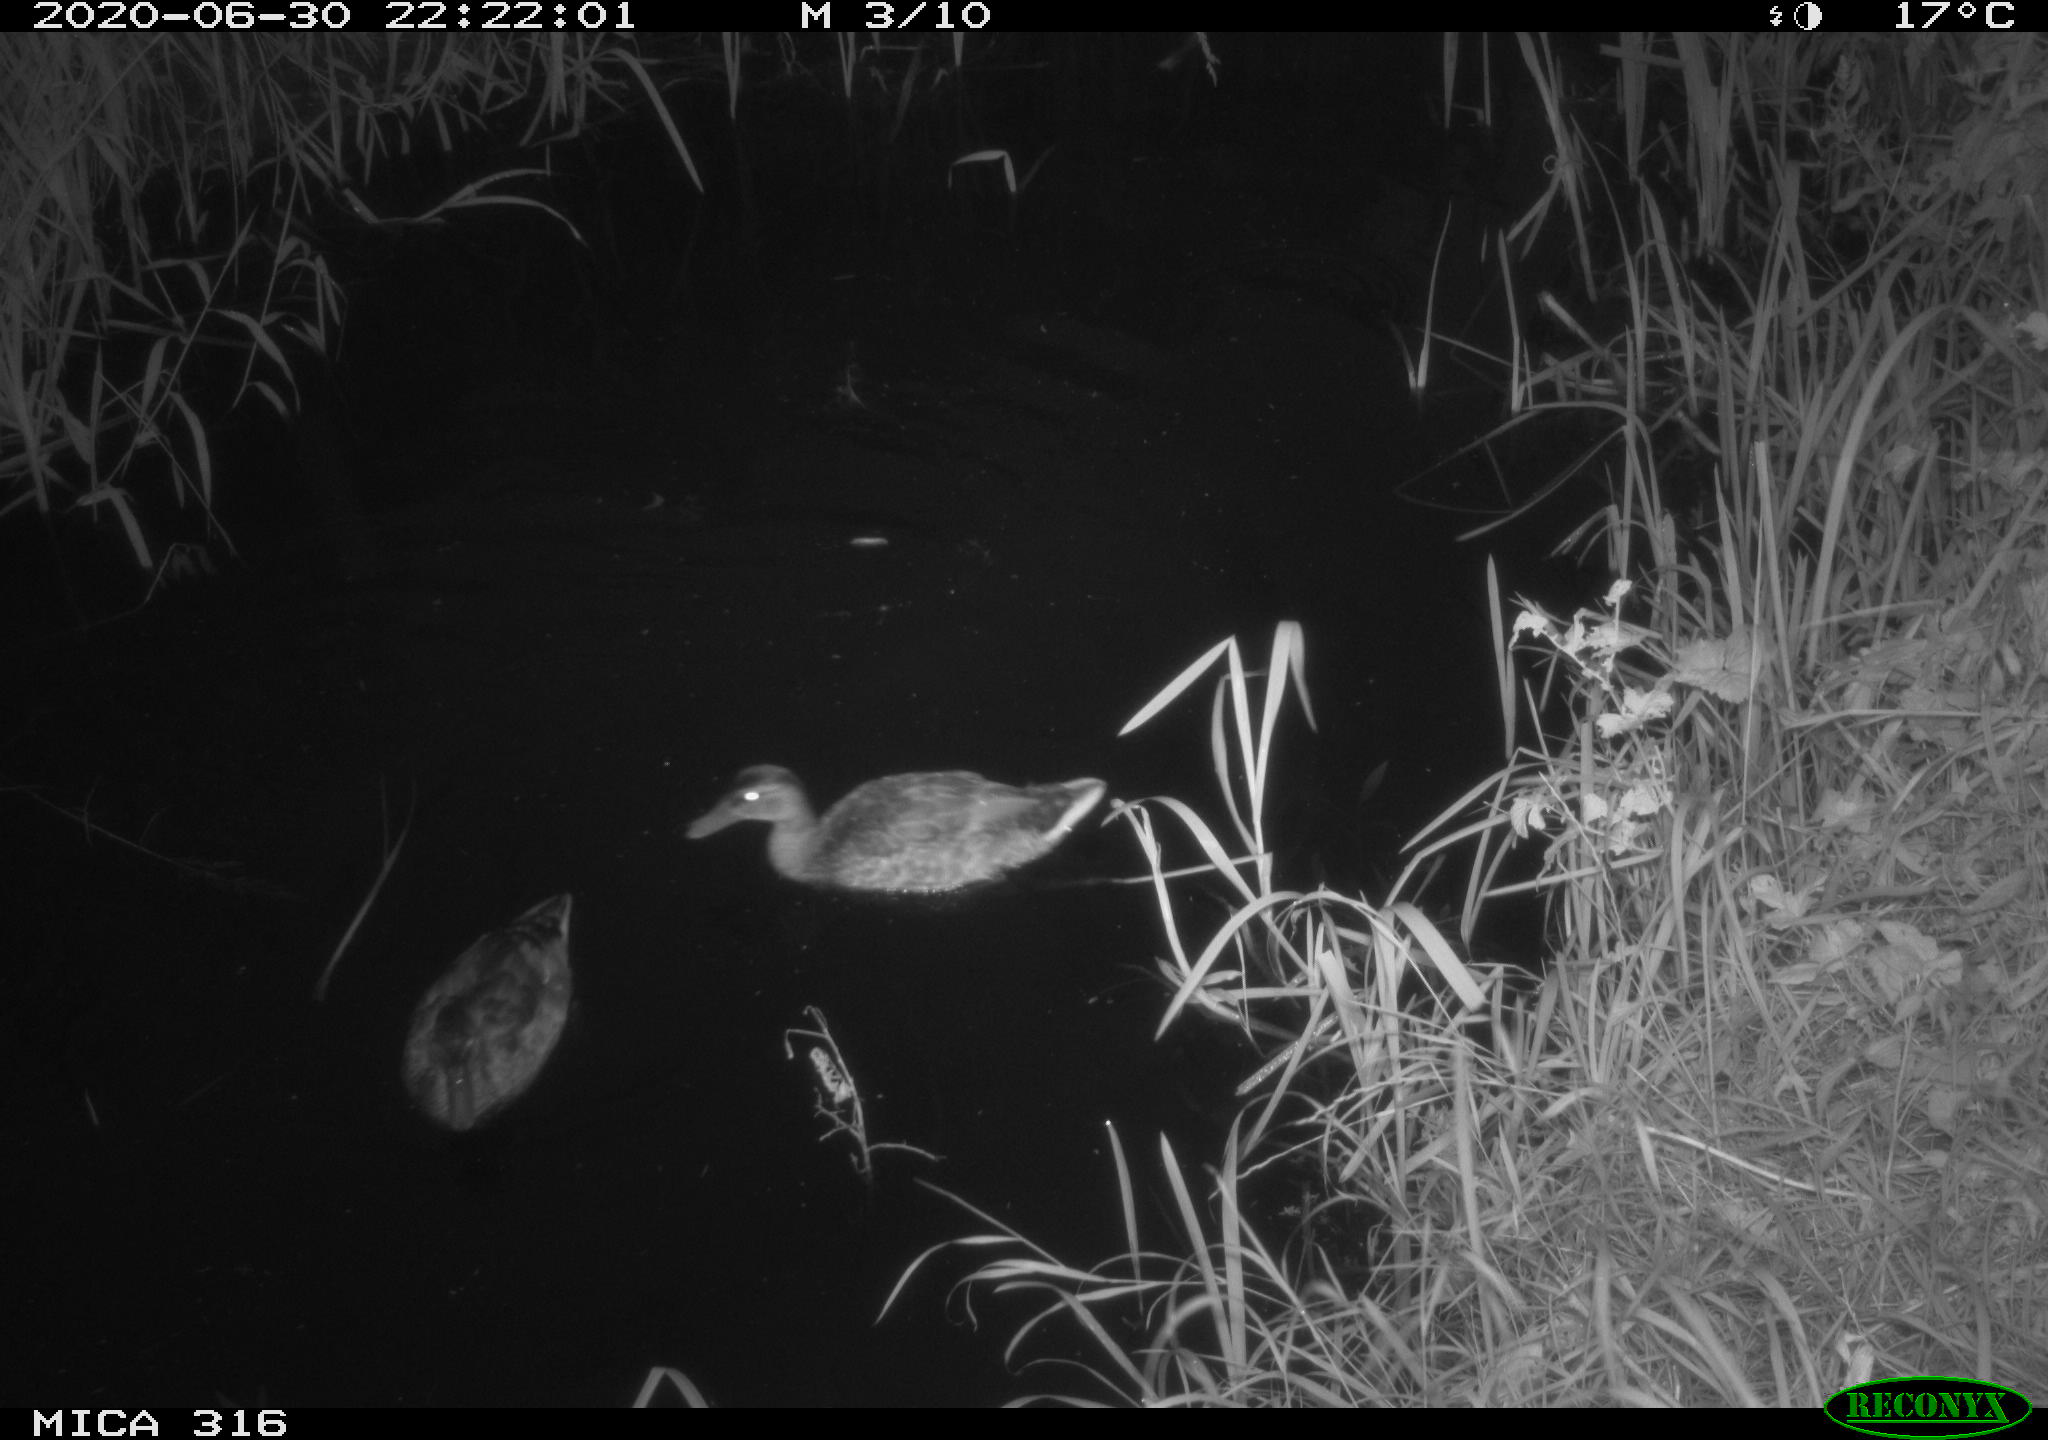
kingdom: Animalia
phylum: Chordata
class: Aves
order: Anseriformes
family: Anatidae
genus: Anas
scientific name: Anas platyrhynchos
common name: Mallard
